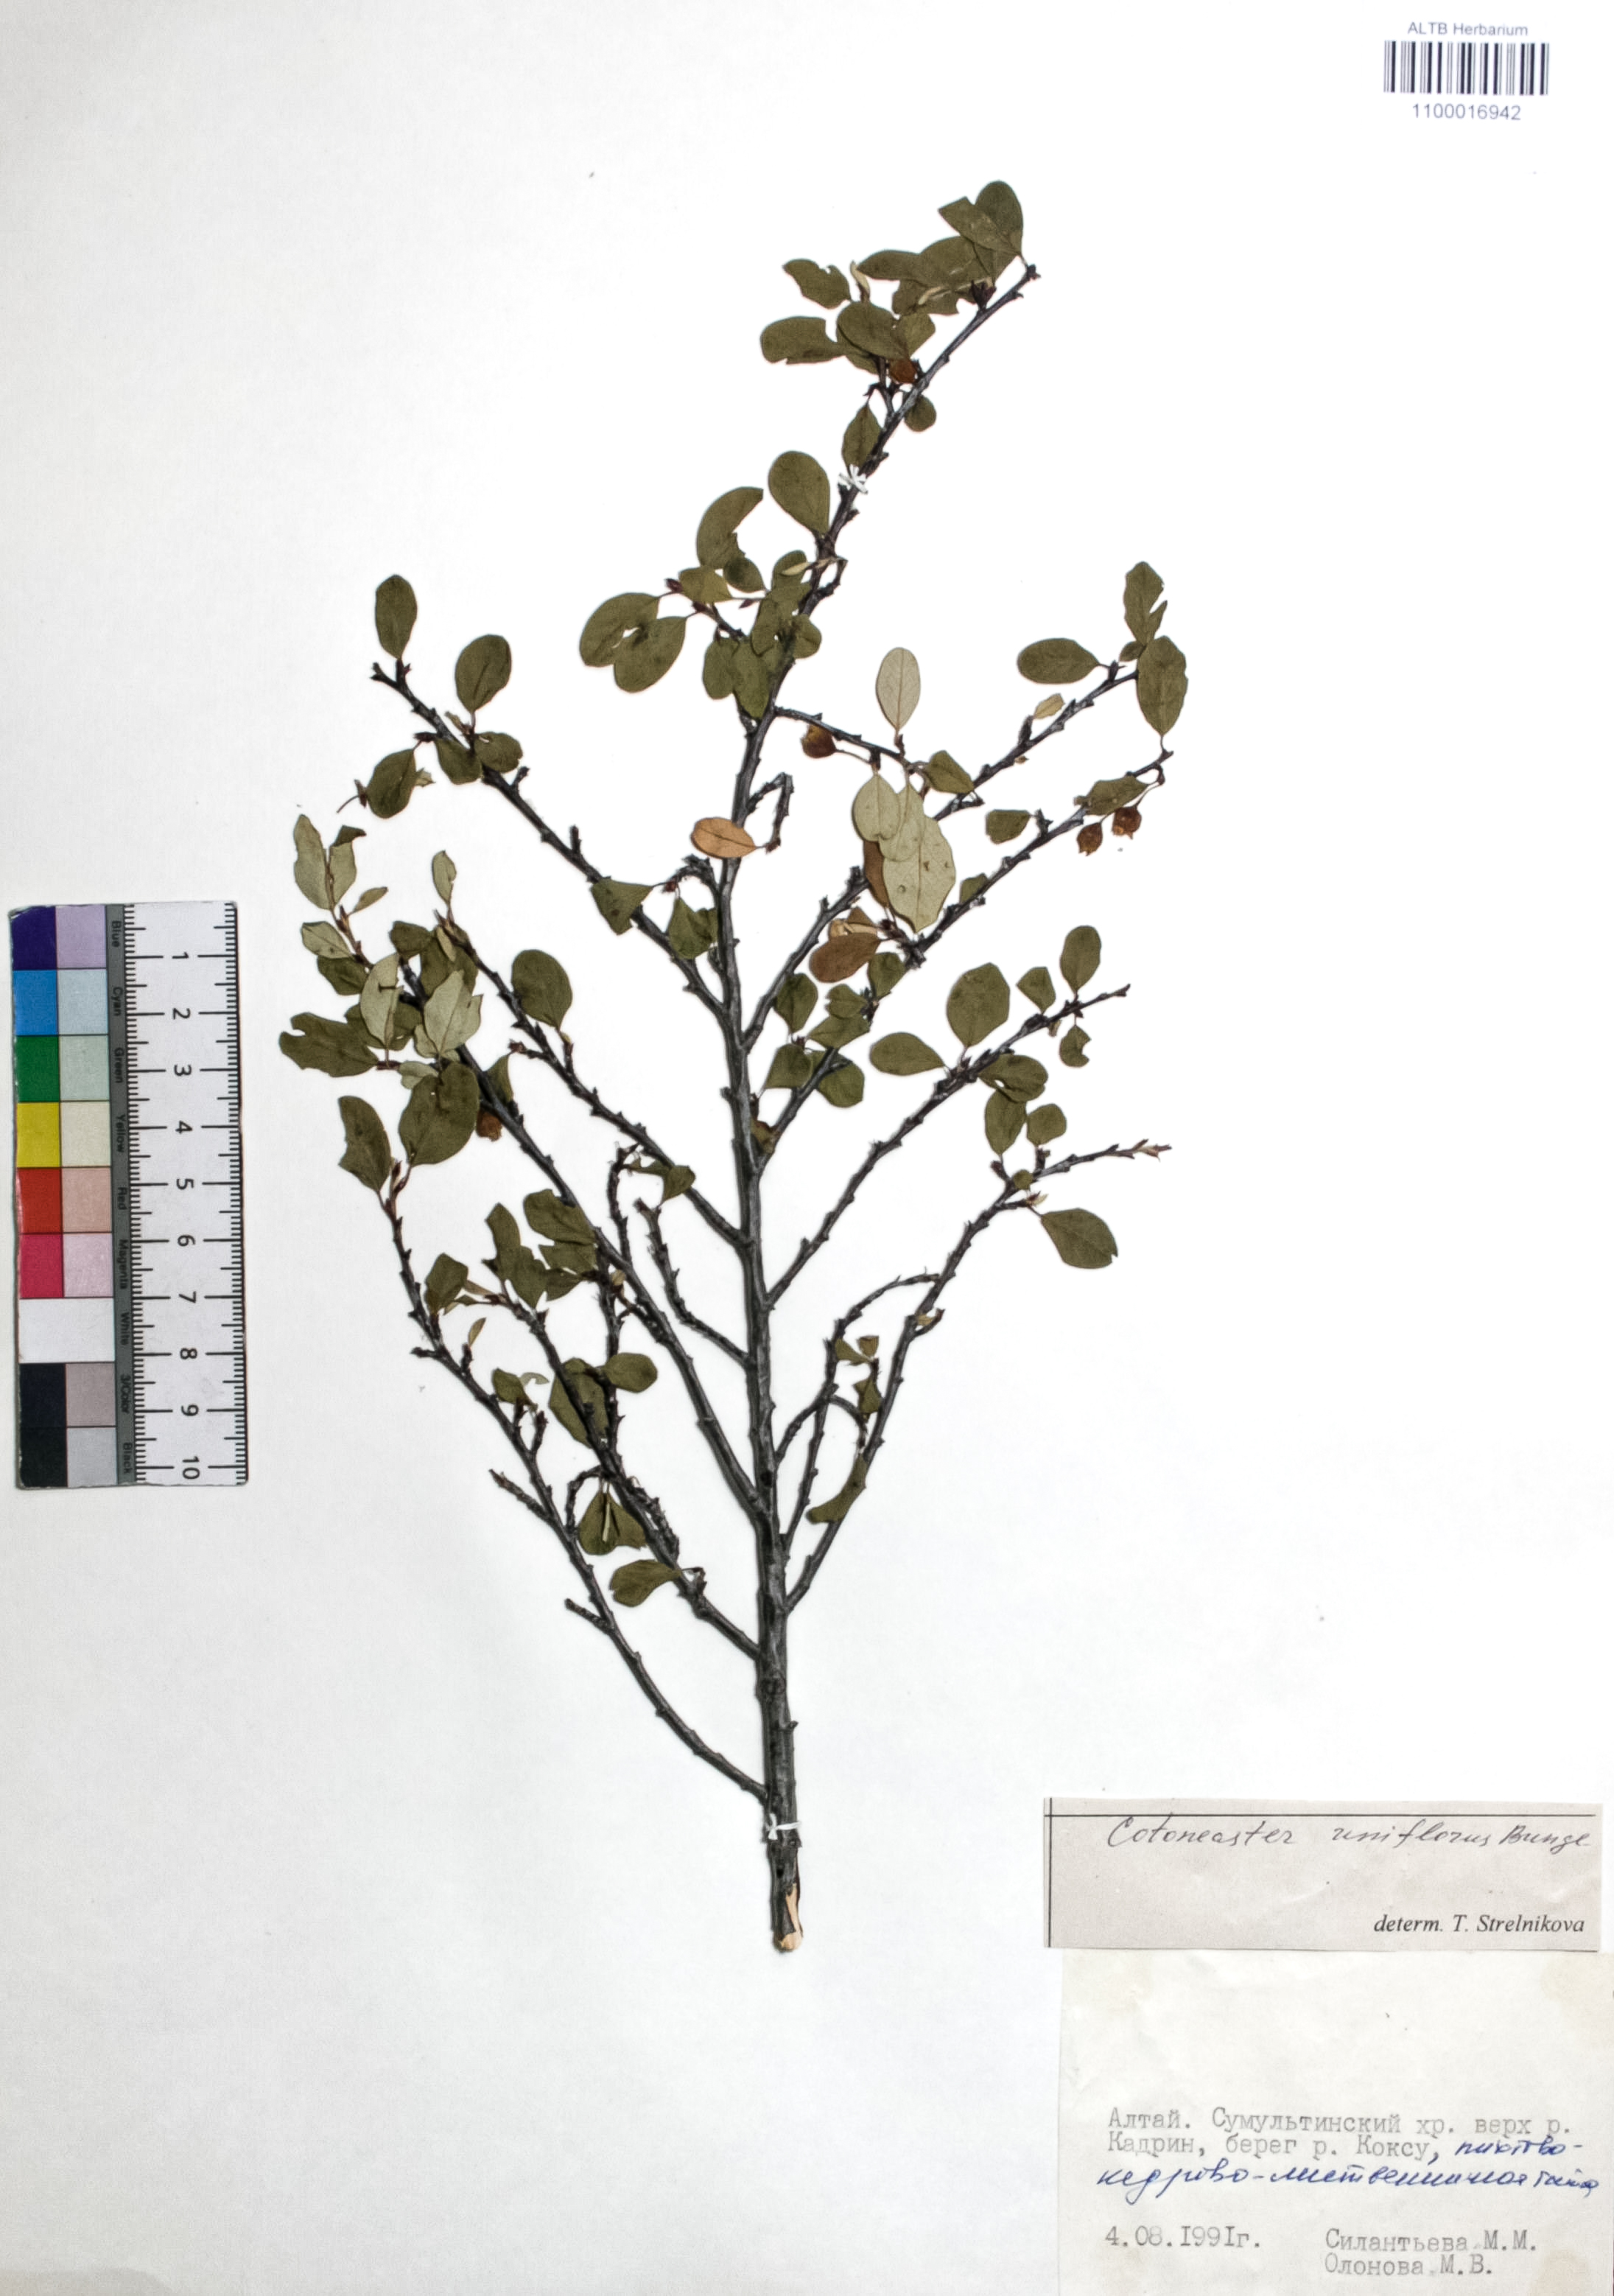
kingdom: Plantae
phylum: Tracheophyta
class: Magnoliopsida
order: Rosales
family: Rosaceae
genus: Cotoneaster
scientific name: Cotoneaster uniflorus
